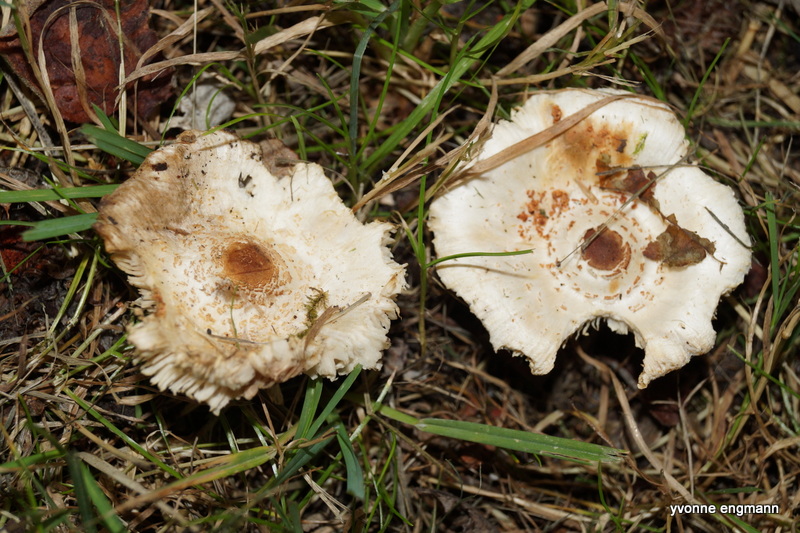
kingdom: Fungi
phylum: Basidiomycota
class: Agaricomycetes
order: Agaricales
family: Agaricaceae
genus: Lepiota
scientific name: Lepiota cristata
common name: stinkende parasolhat
